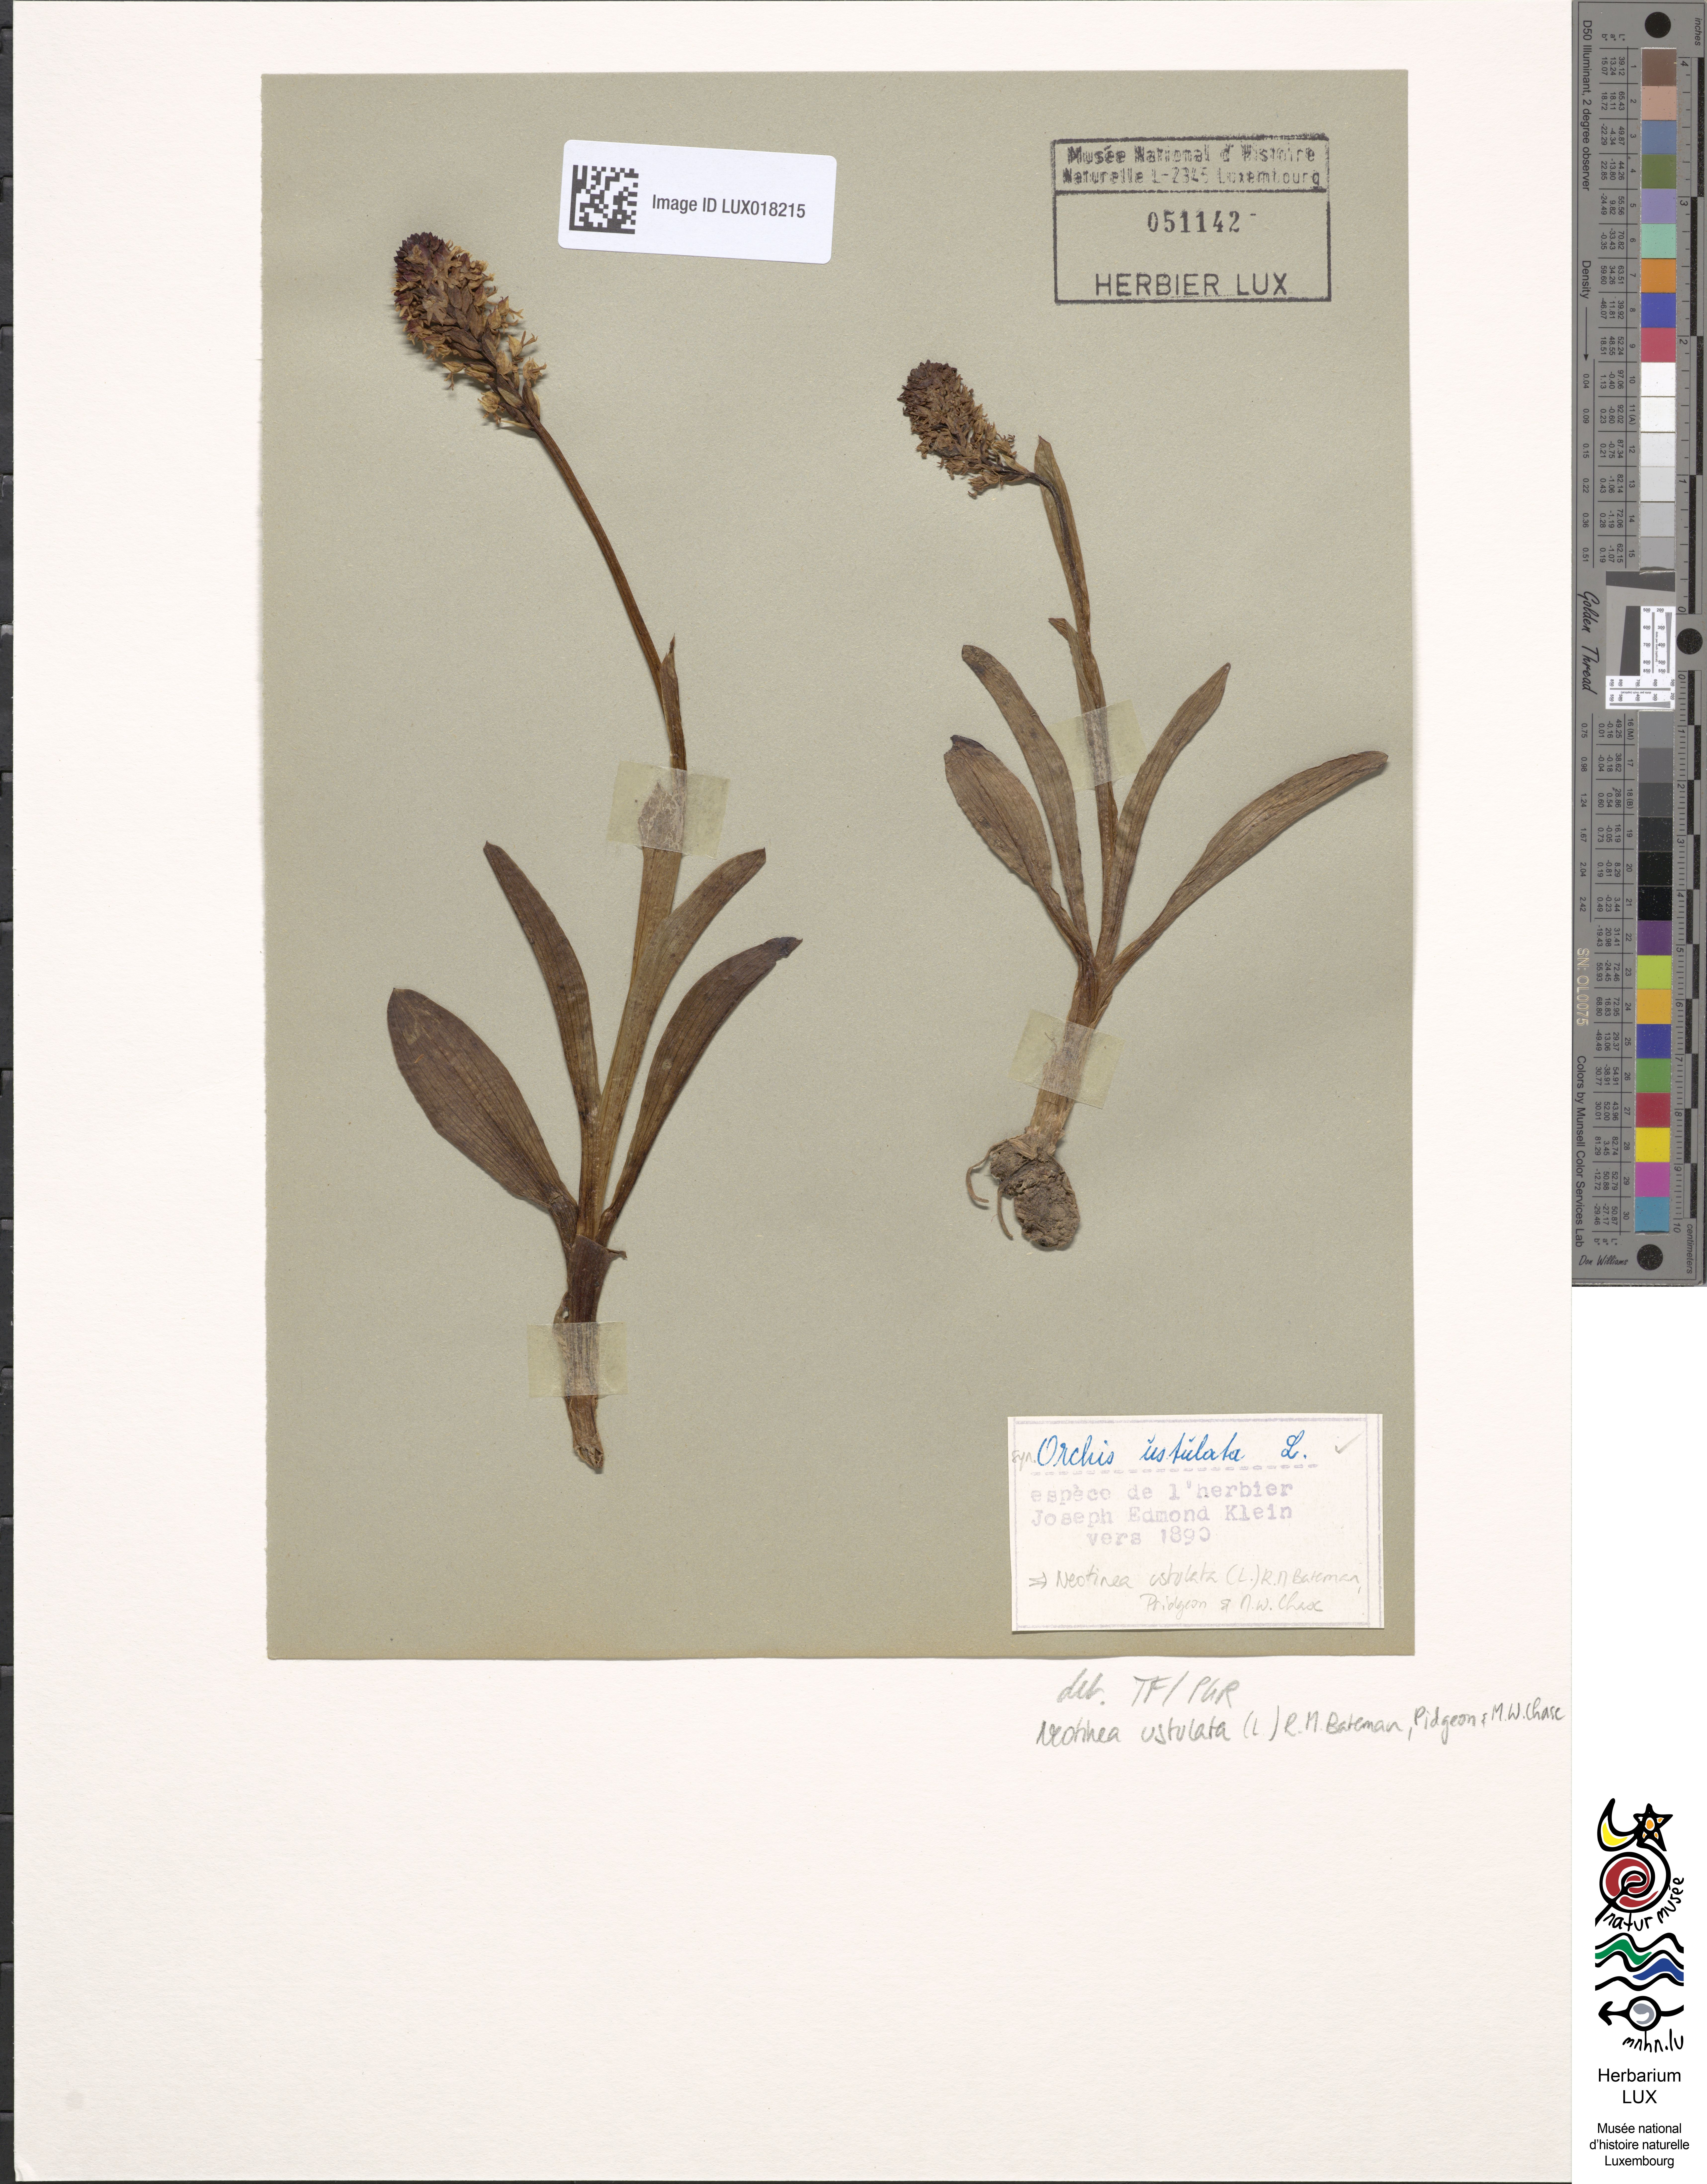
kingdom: Plantae
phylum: Tracheophyta
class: Liliopsida
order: Asparagales
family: Orchidaceae
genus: Neotinea
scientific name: Neotinea ustulata
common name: Burnt orchid
